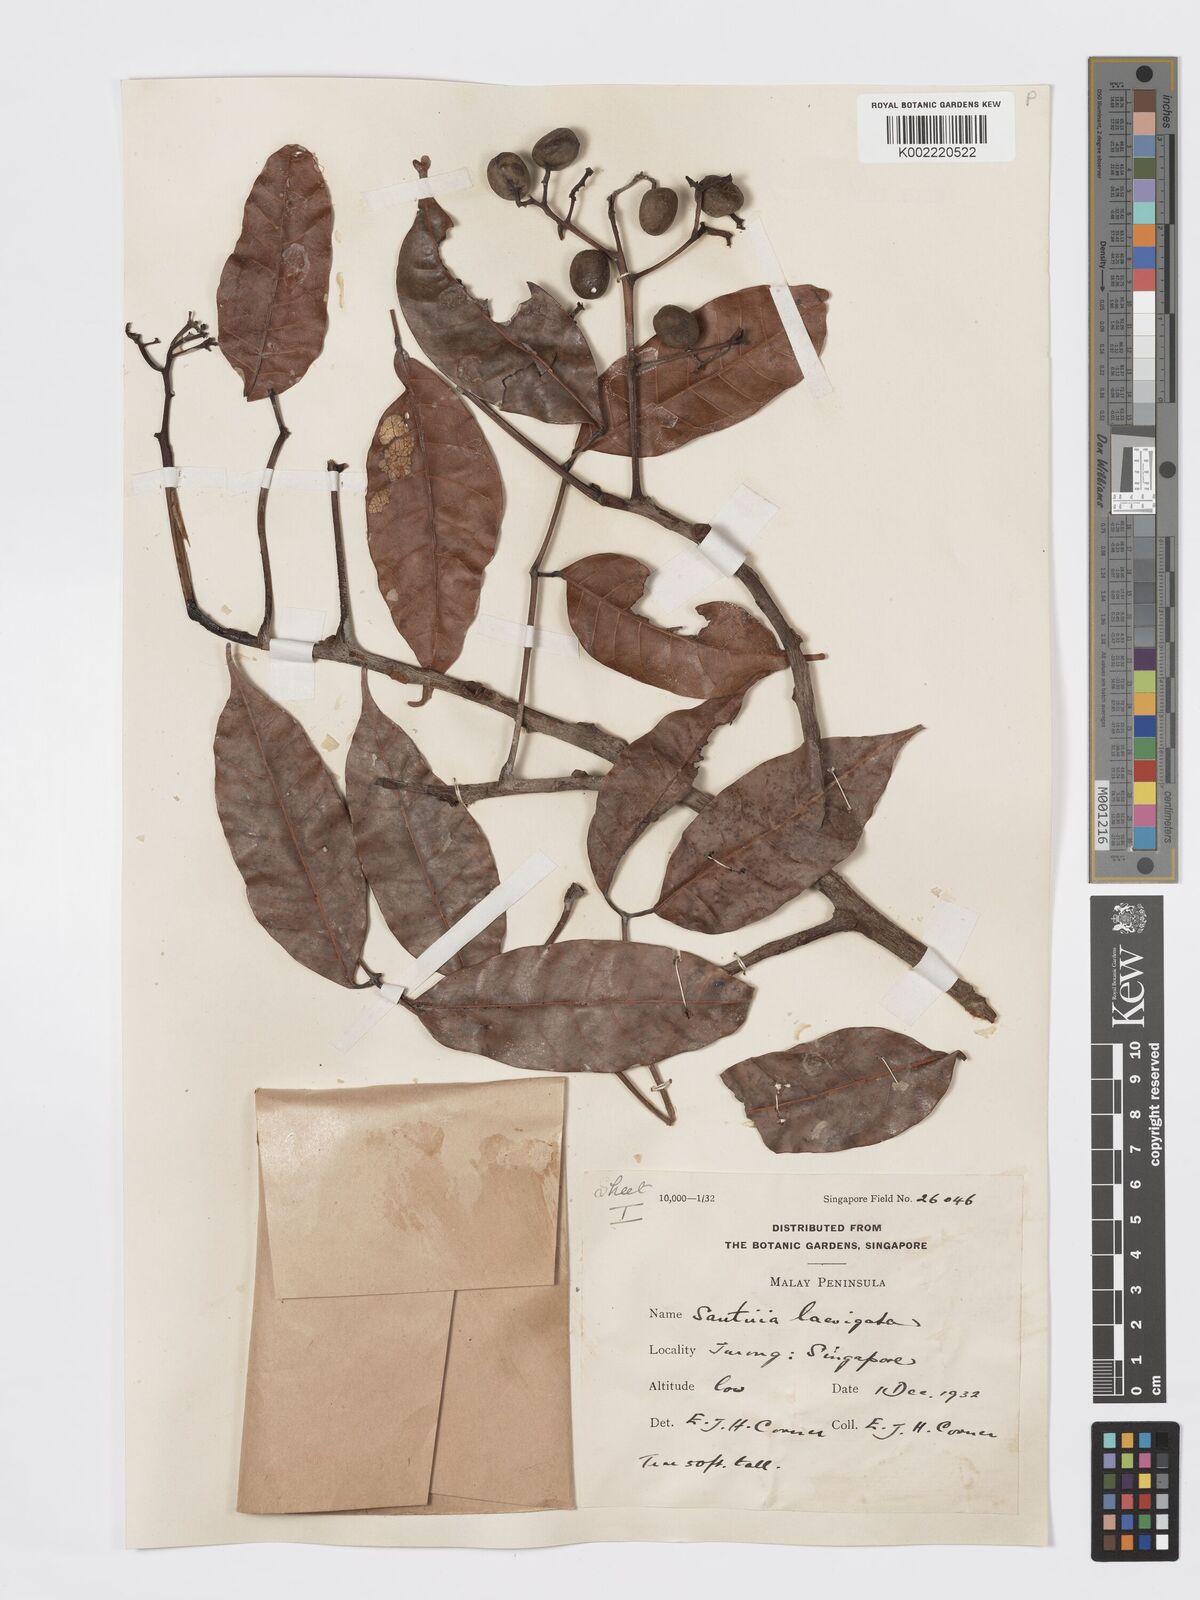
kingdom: Plantae
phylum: Tracheophyta
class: Magnoliopsida
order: Sapindales
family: Burseraceae
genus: Santiria
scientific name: Santiria laevigata
